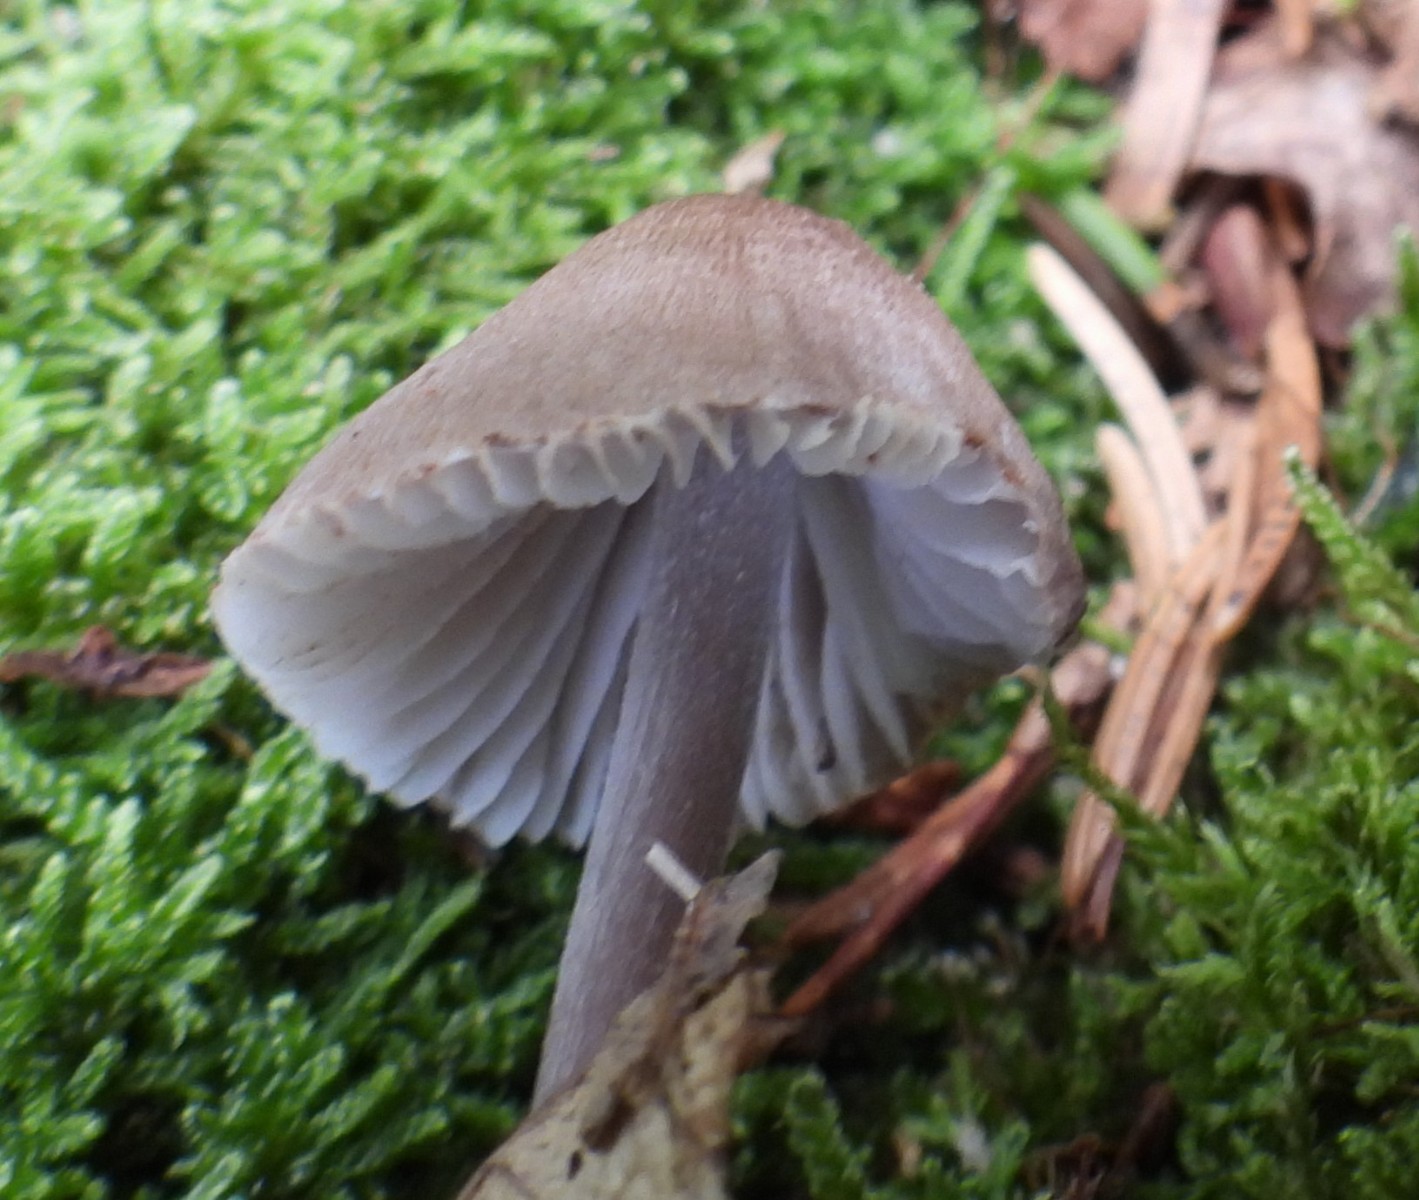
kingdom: Fungi
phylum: Basidiomycota
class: Agaricomycetes
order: Agaricales
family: Mycenaceae
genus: Mycena
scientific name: Mycena zephirus
